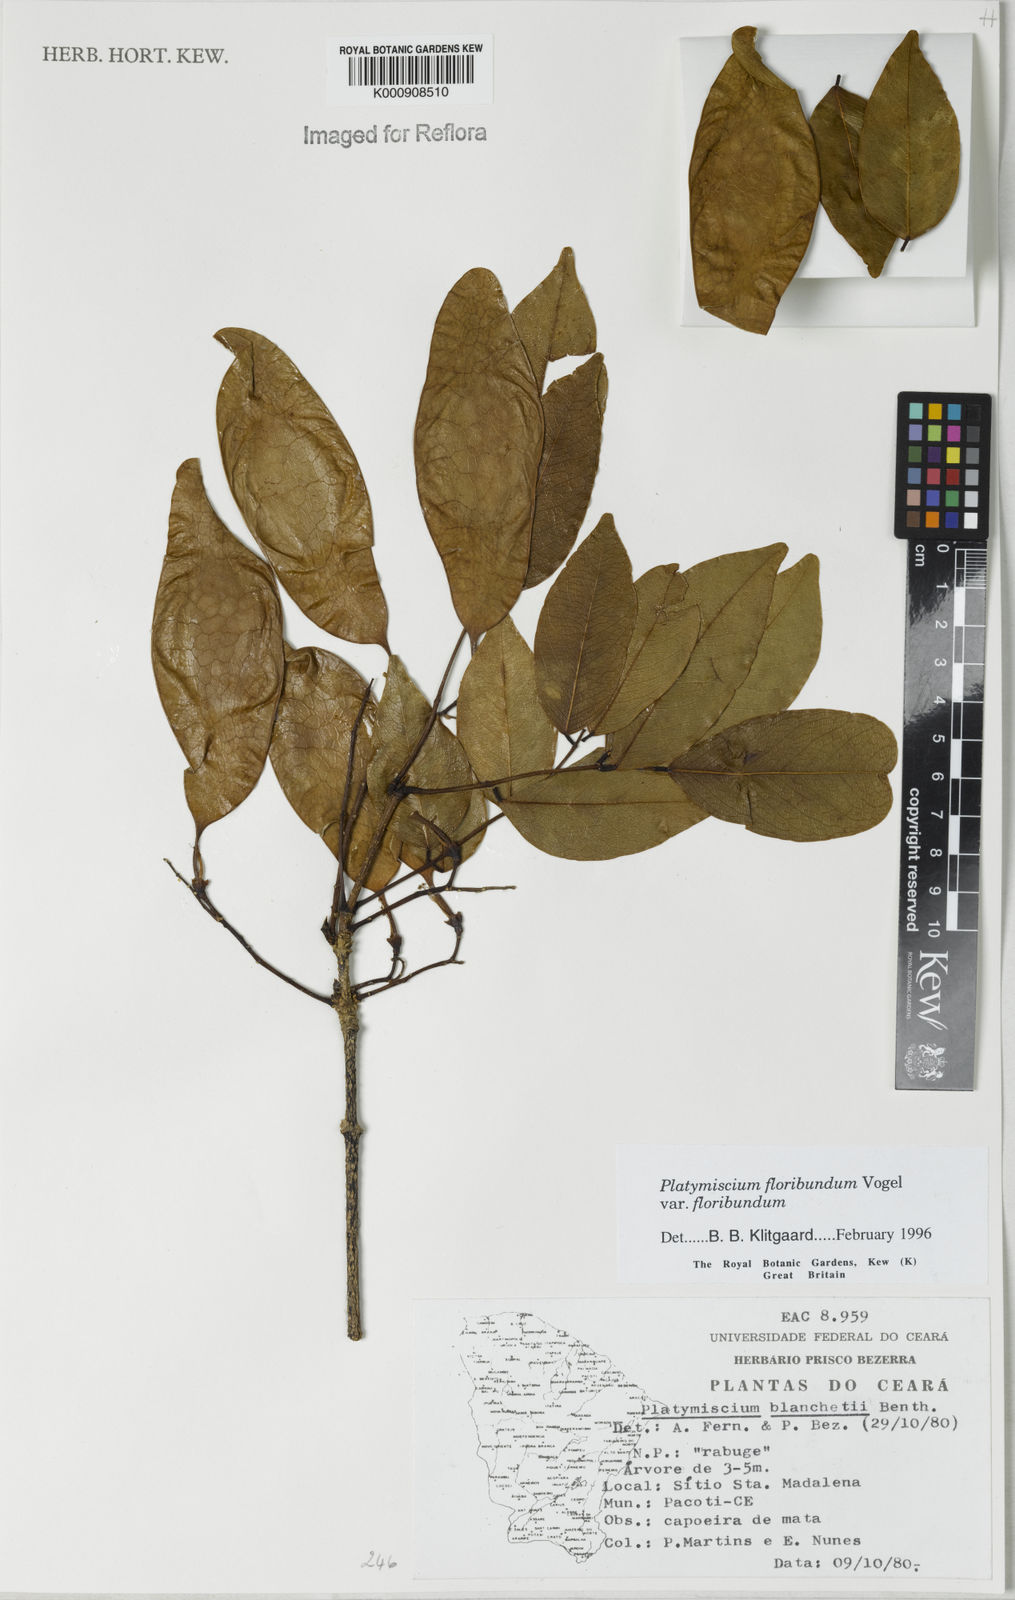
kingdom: Plantae
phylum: Tracheophyta
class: Magnoliopsida
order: Fabales
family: Fabaceae
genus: Platymiscium
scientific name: Platymiscium floribundum
